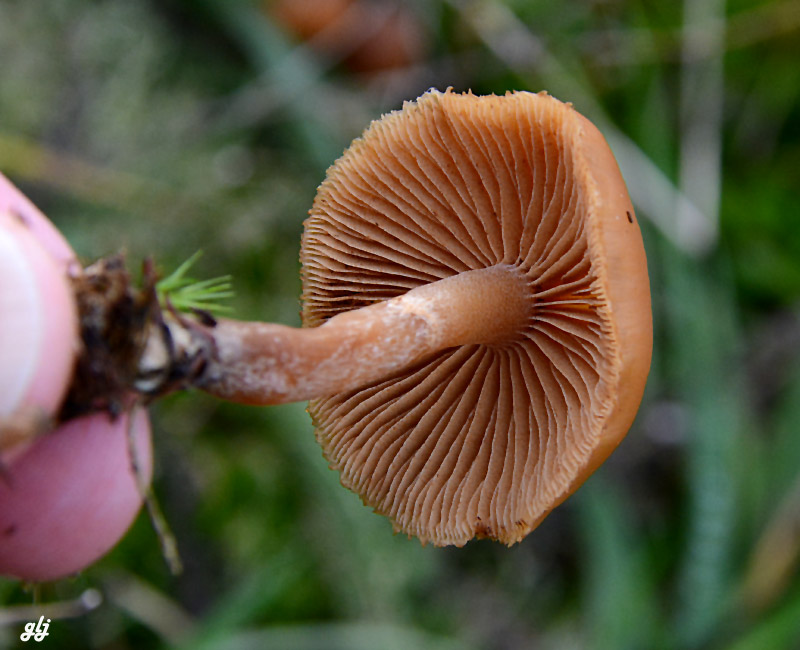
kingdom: Fungi
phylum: Basidiomycota
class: Agaricomycetes
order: Agaricales
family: Hymenogastraceae
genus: Galerina
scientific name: Galerina
